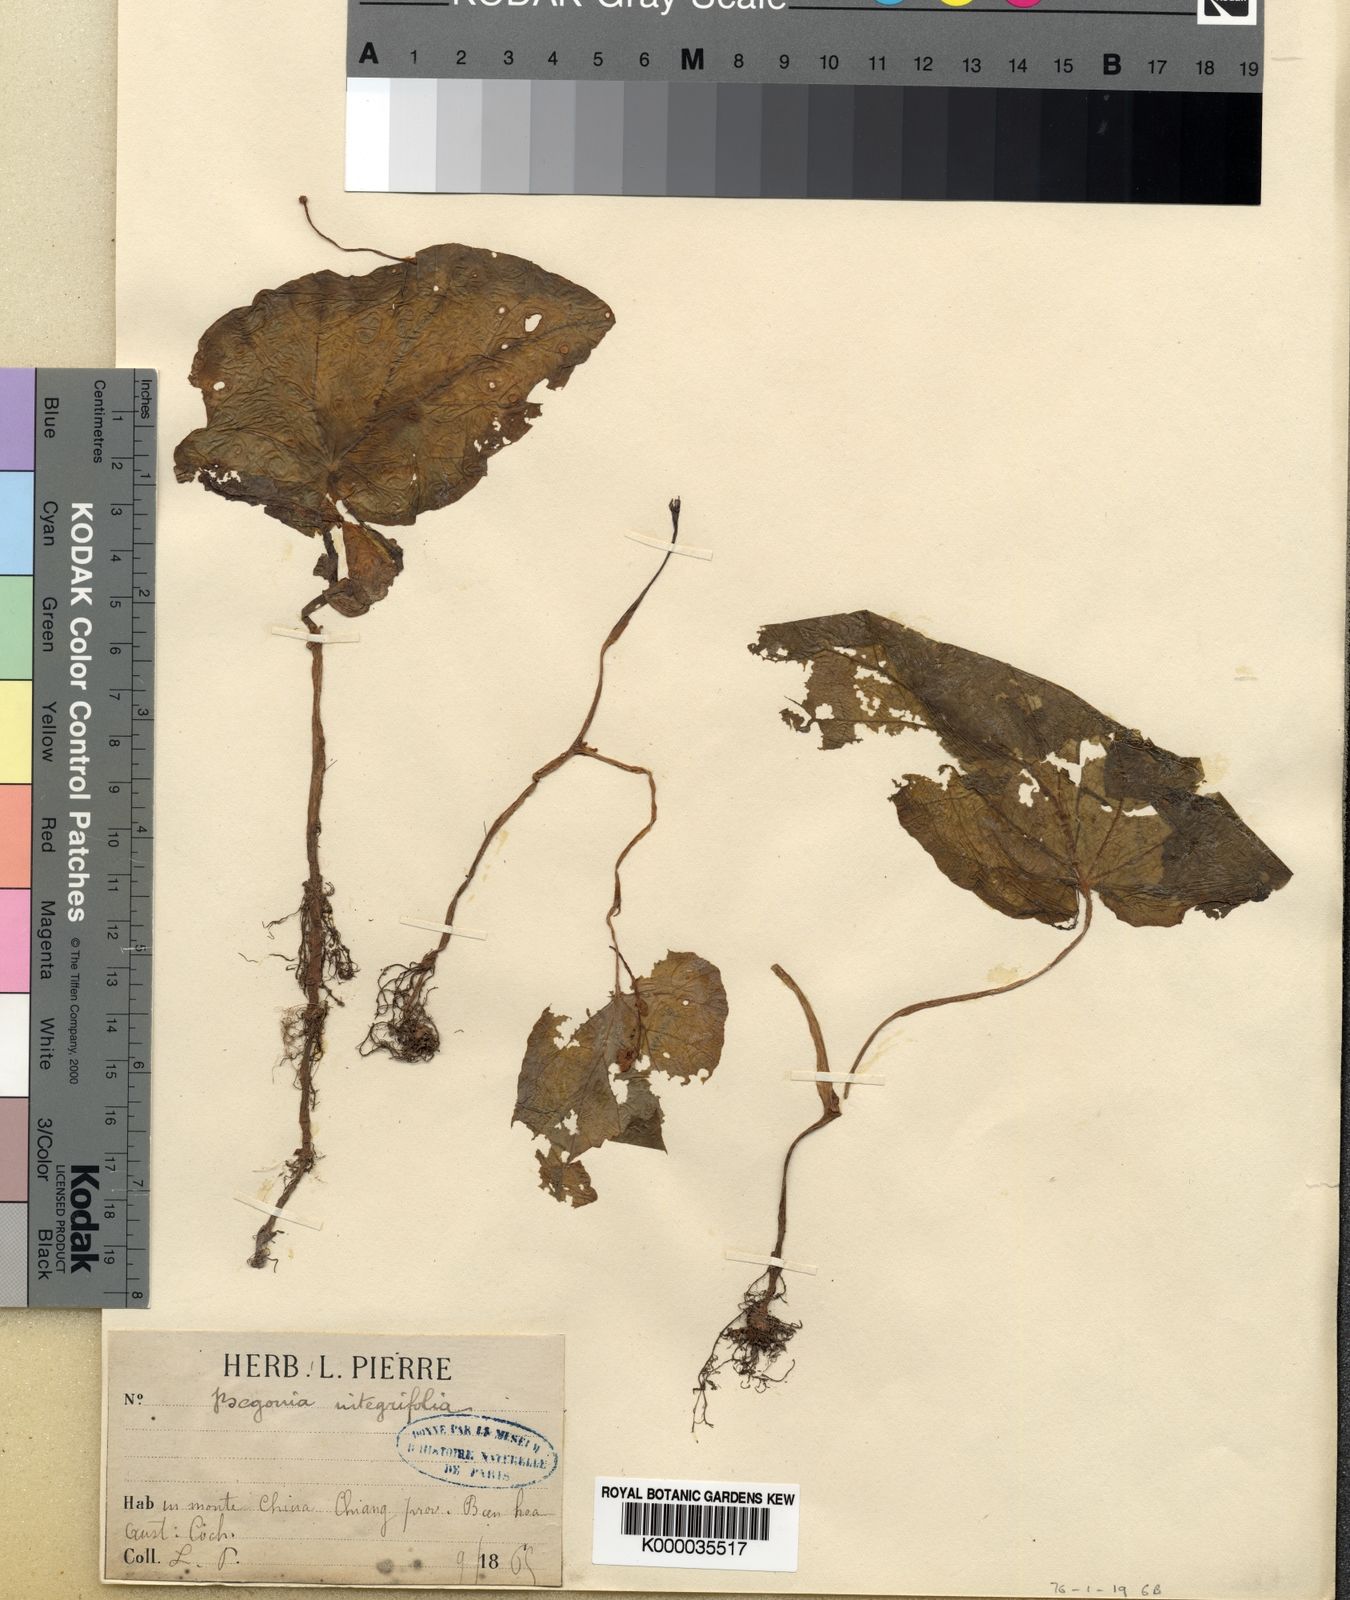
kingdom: Plantae
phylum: Tracheophyta
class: Magnoliopsida
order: Cucurbitales
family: Begoniaceae
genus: Begonia
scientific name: Begonia integrifolia
